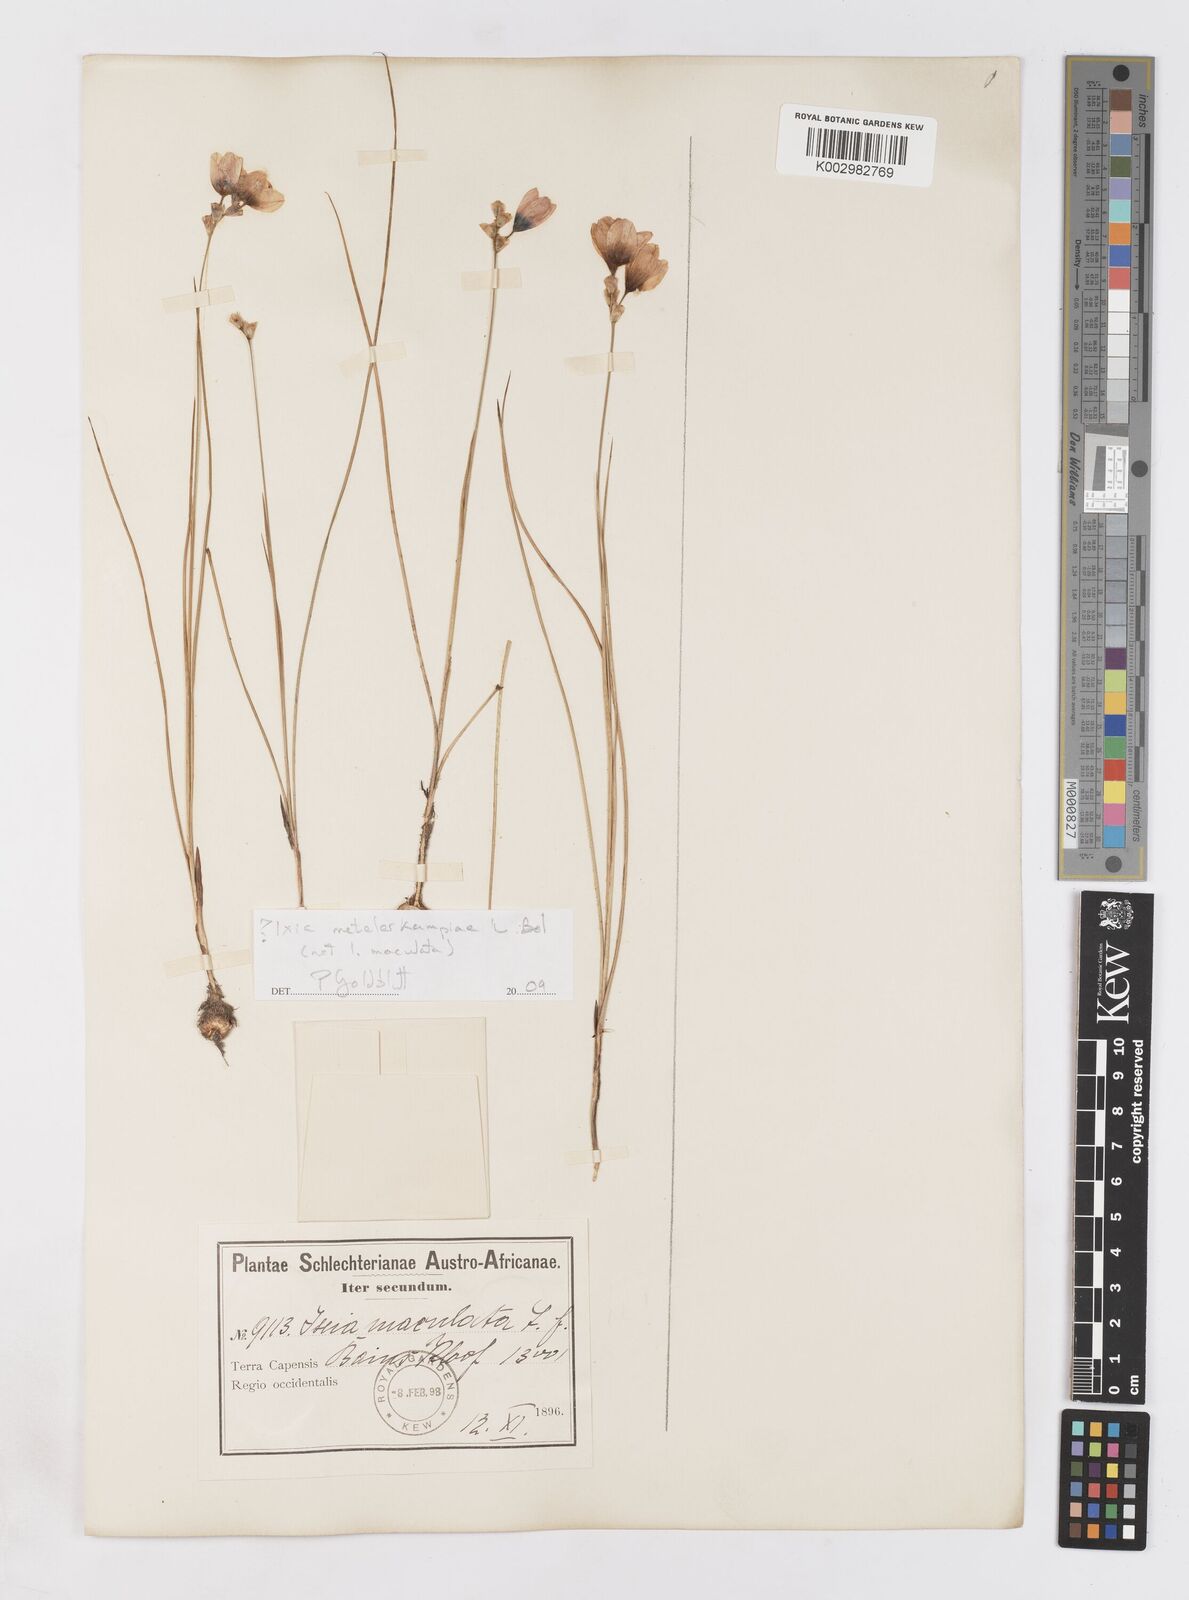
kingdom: Plantae
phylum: Tracheophyta
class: Liliopsida
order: Asparagales
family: Iridaceae
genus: Ixia
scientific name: Ixia metelerkampiae
